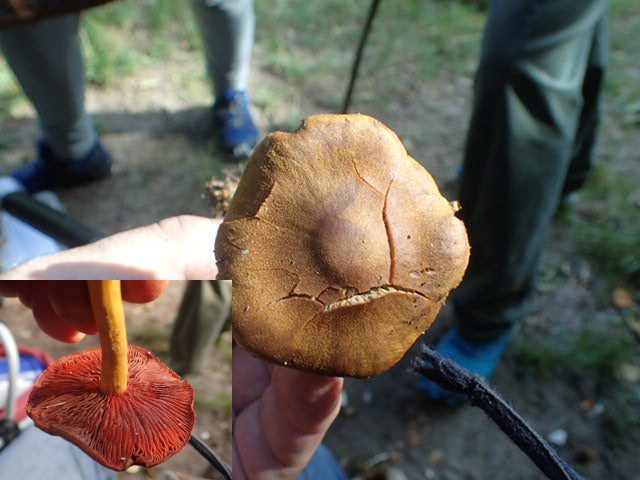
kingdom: Fungi
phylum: Basidiomycota
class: Agaricomycetes
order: Agaricales
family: Cortinariaceae
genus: Cortinarius
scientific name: Cortinarius
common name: cinnoberbladet slørhat
